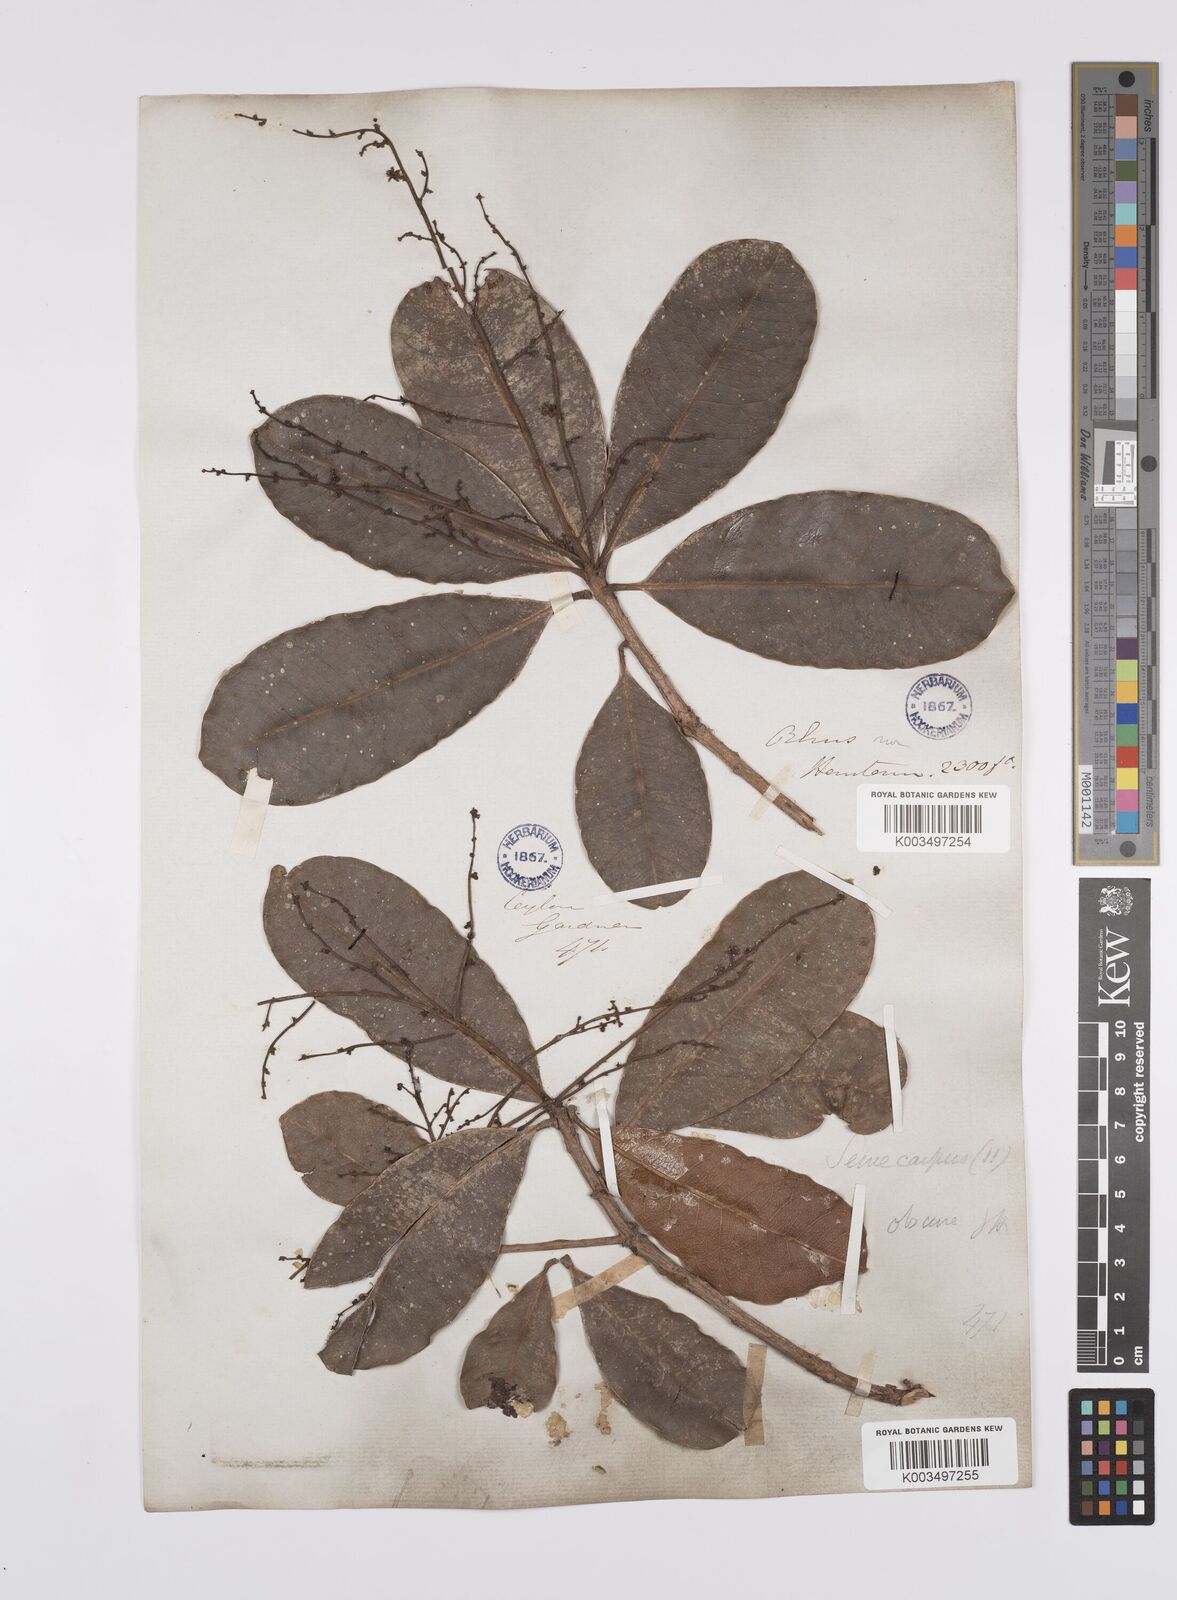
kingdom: Plantae
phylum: Tracheophyta
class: Magnoliopsida
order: Sapindales
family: Anacardiaceae
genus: Semecarpus
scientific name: Semecarpus walkeri
